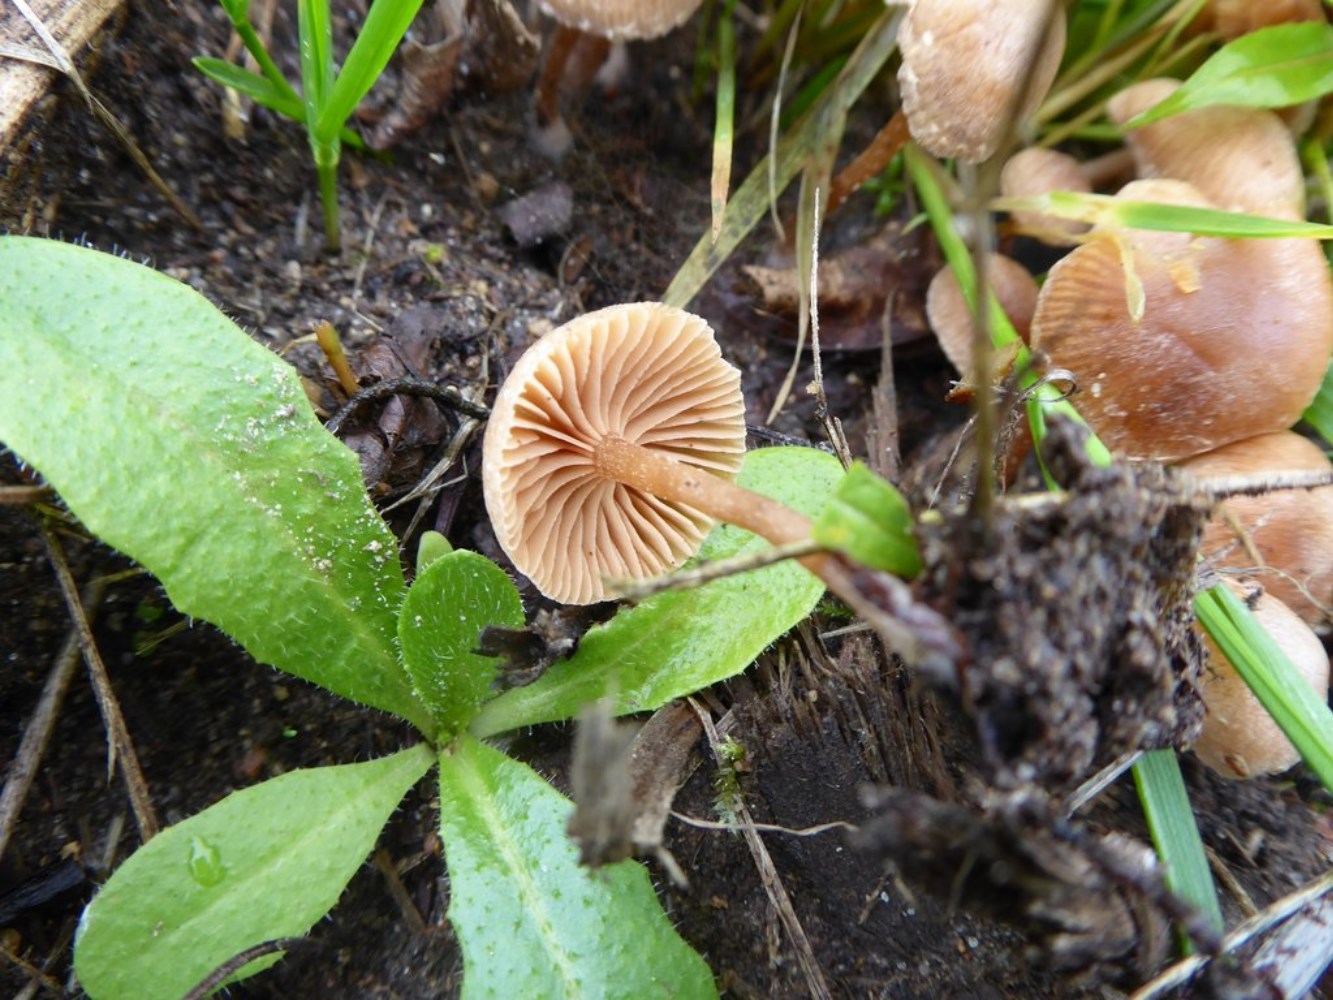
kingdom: Fungi
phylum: Basidiomycota
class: Agaricomycetes
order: Agaricales
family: Tubariaceae
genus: Tubaria
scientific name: Tubaria furfuracea
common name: kliddet fnughat
